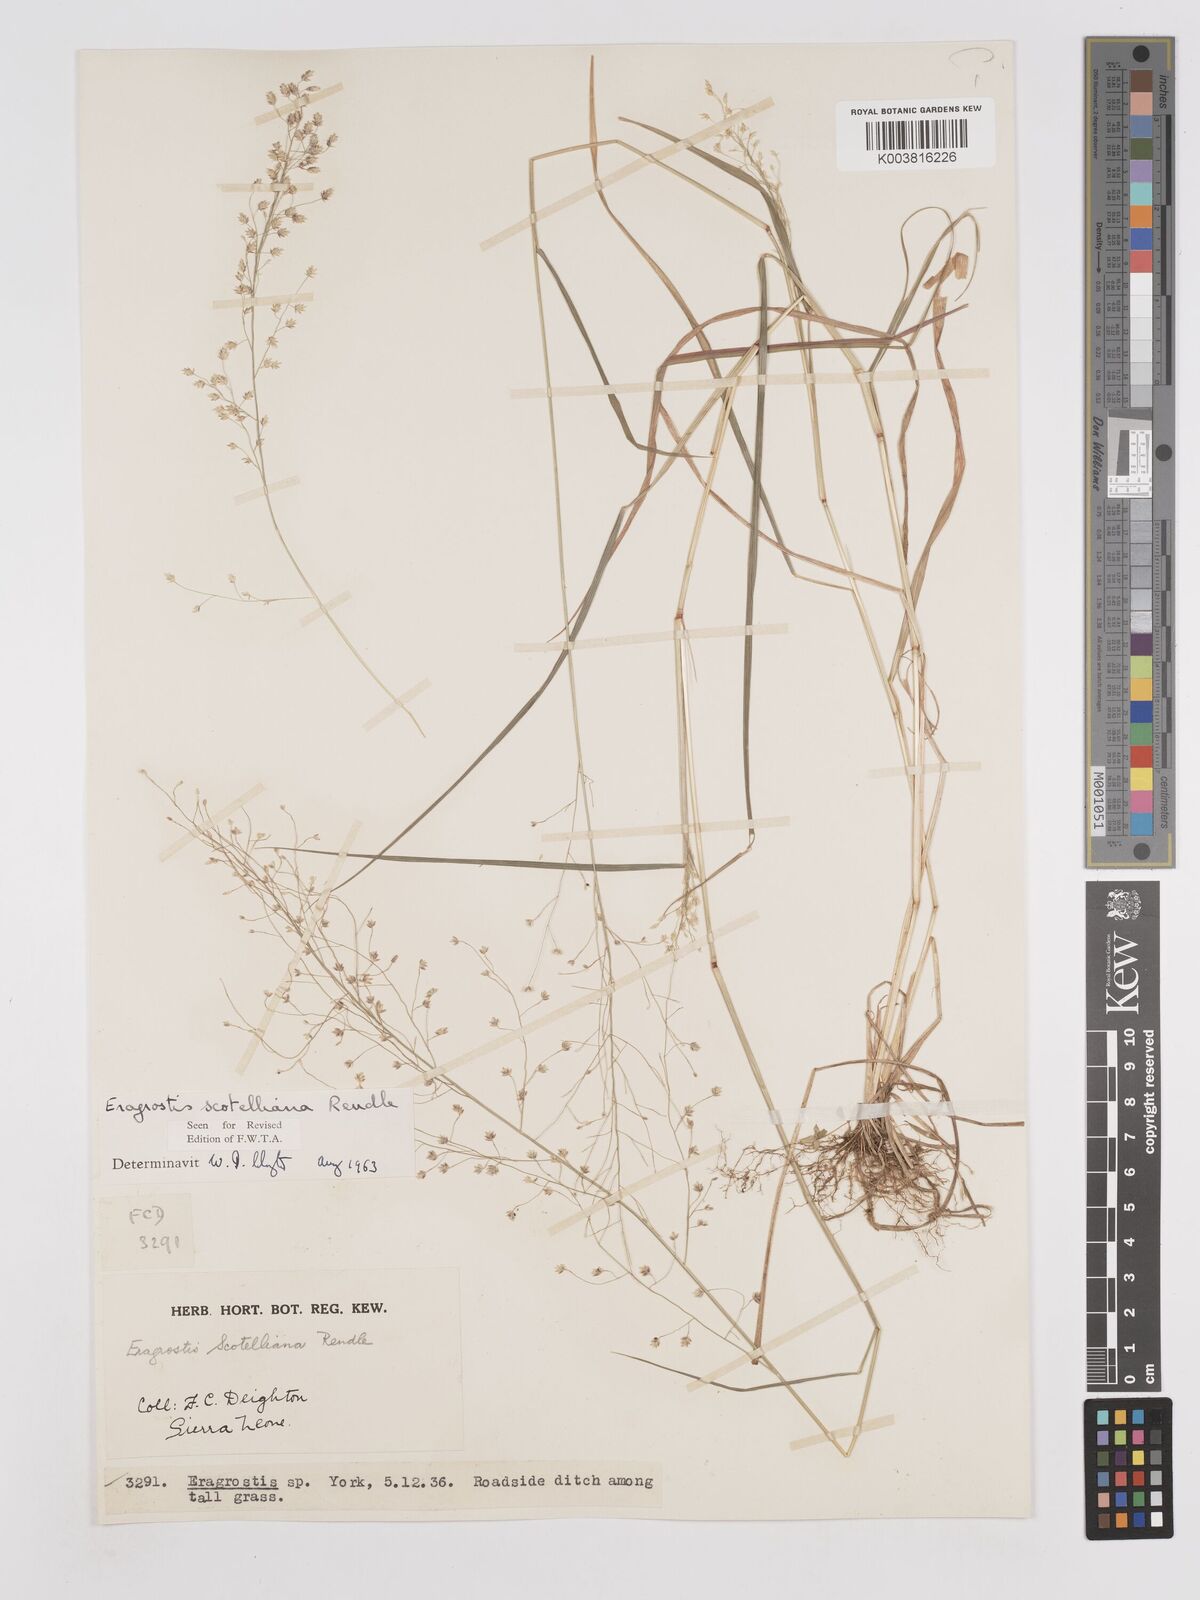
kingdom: Plantae
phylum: Tracheophyta
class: Liliopsida
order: Poales
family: Poaceae
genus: Eragrostis
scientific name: Eragrostis scotelliana
